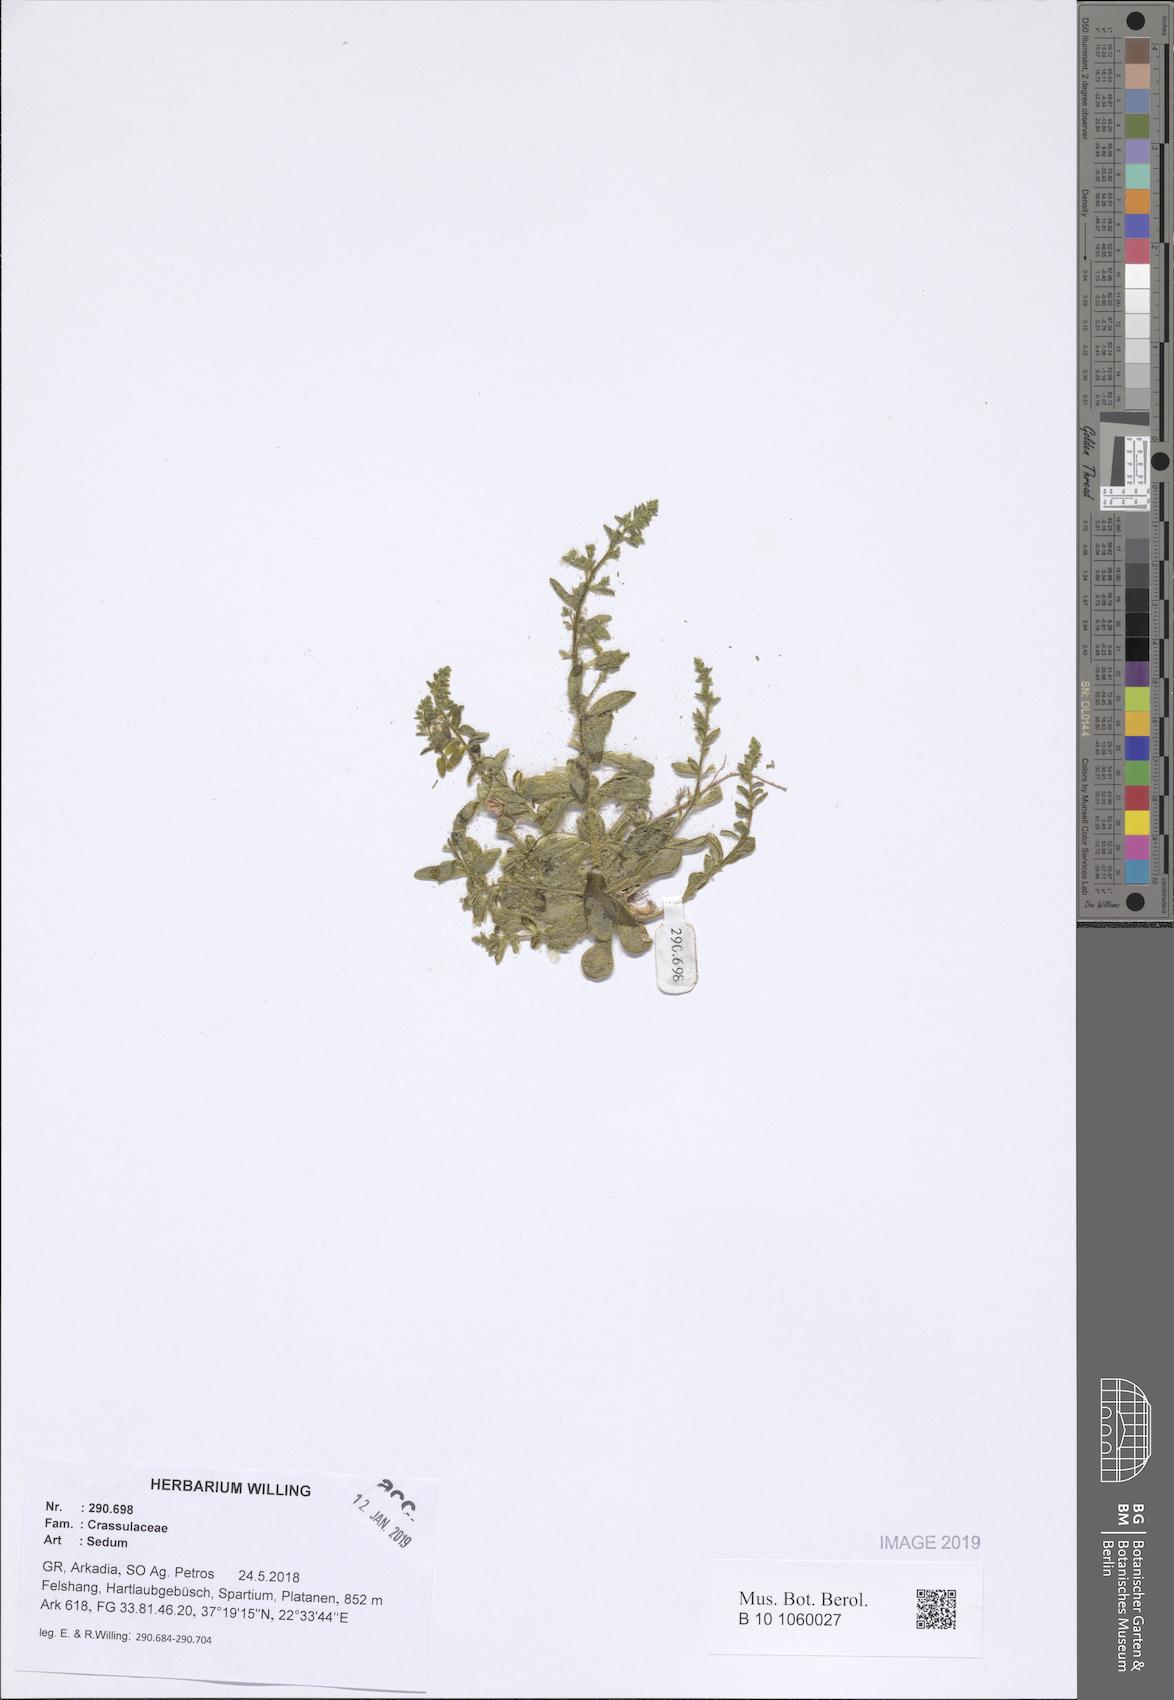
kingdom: Plantae
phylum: Tracheophyta
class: Magnoliopsida
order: Saxifragales
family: Crassulaceae
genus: Sedum
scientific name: Sedum
